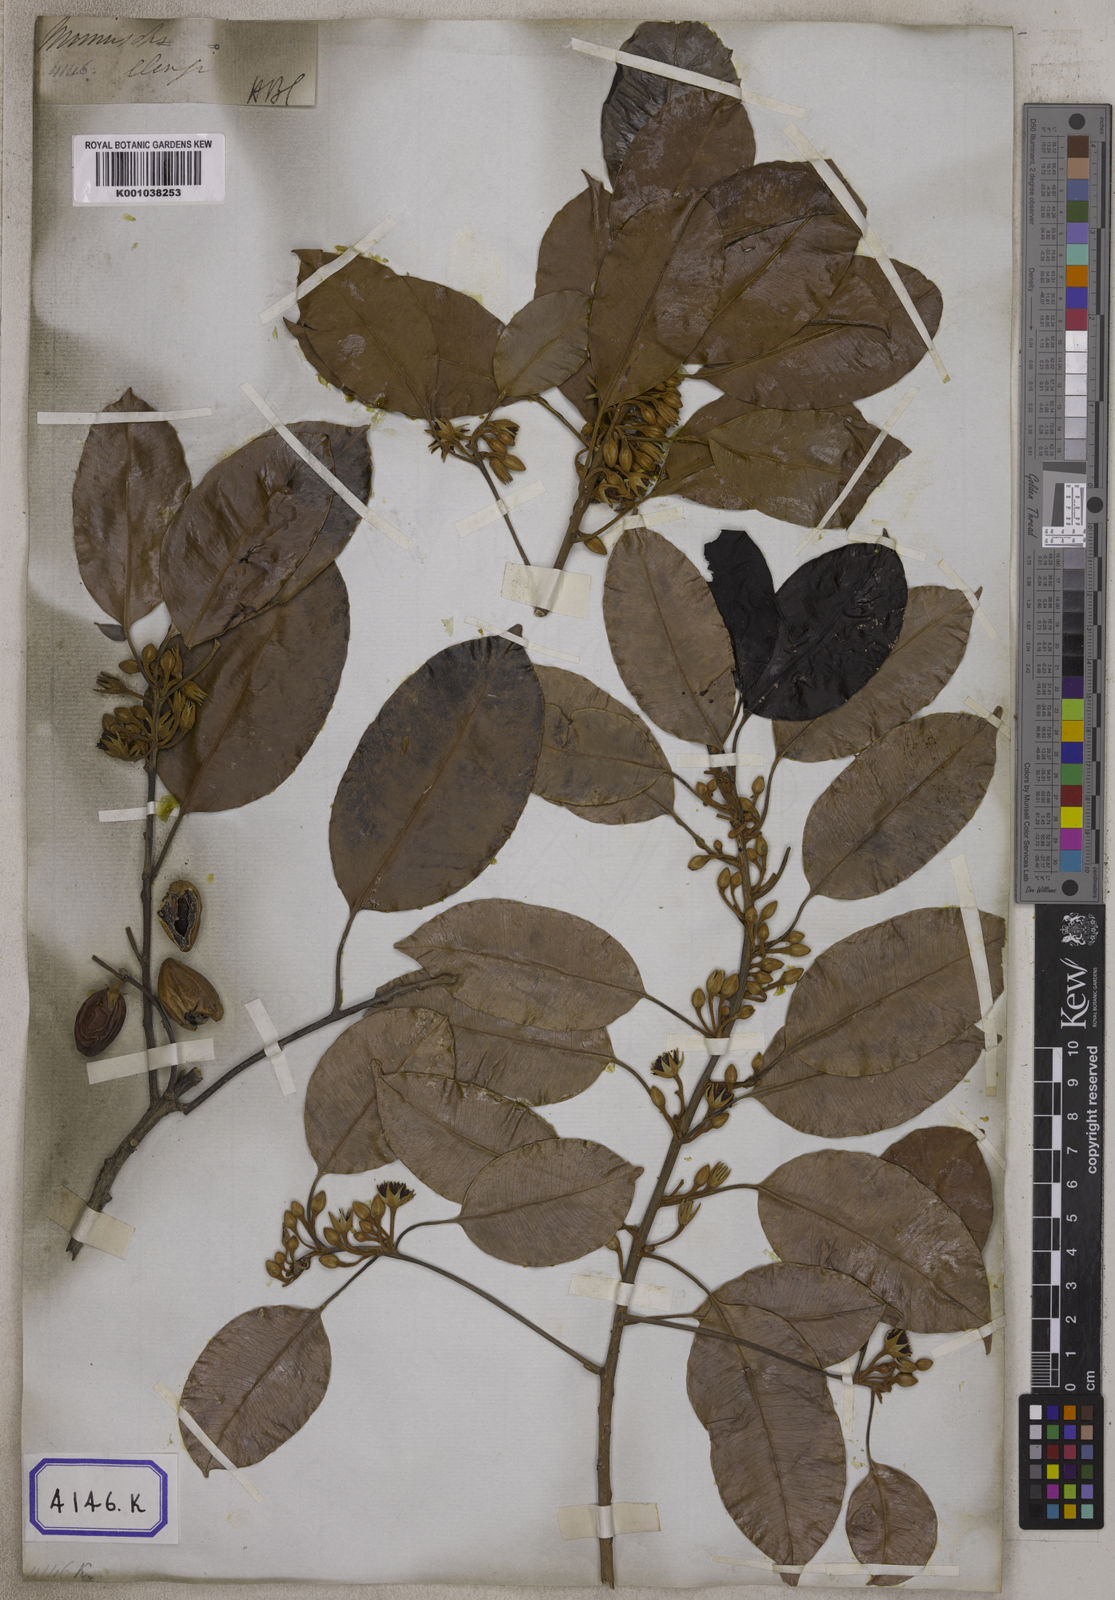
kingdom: Plantae
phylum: Tracheophyta
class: Magnoliopsida
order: Ericales
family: Sapotaceae
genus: Mimusops
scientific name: Mimusops
